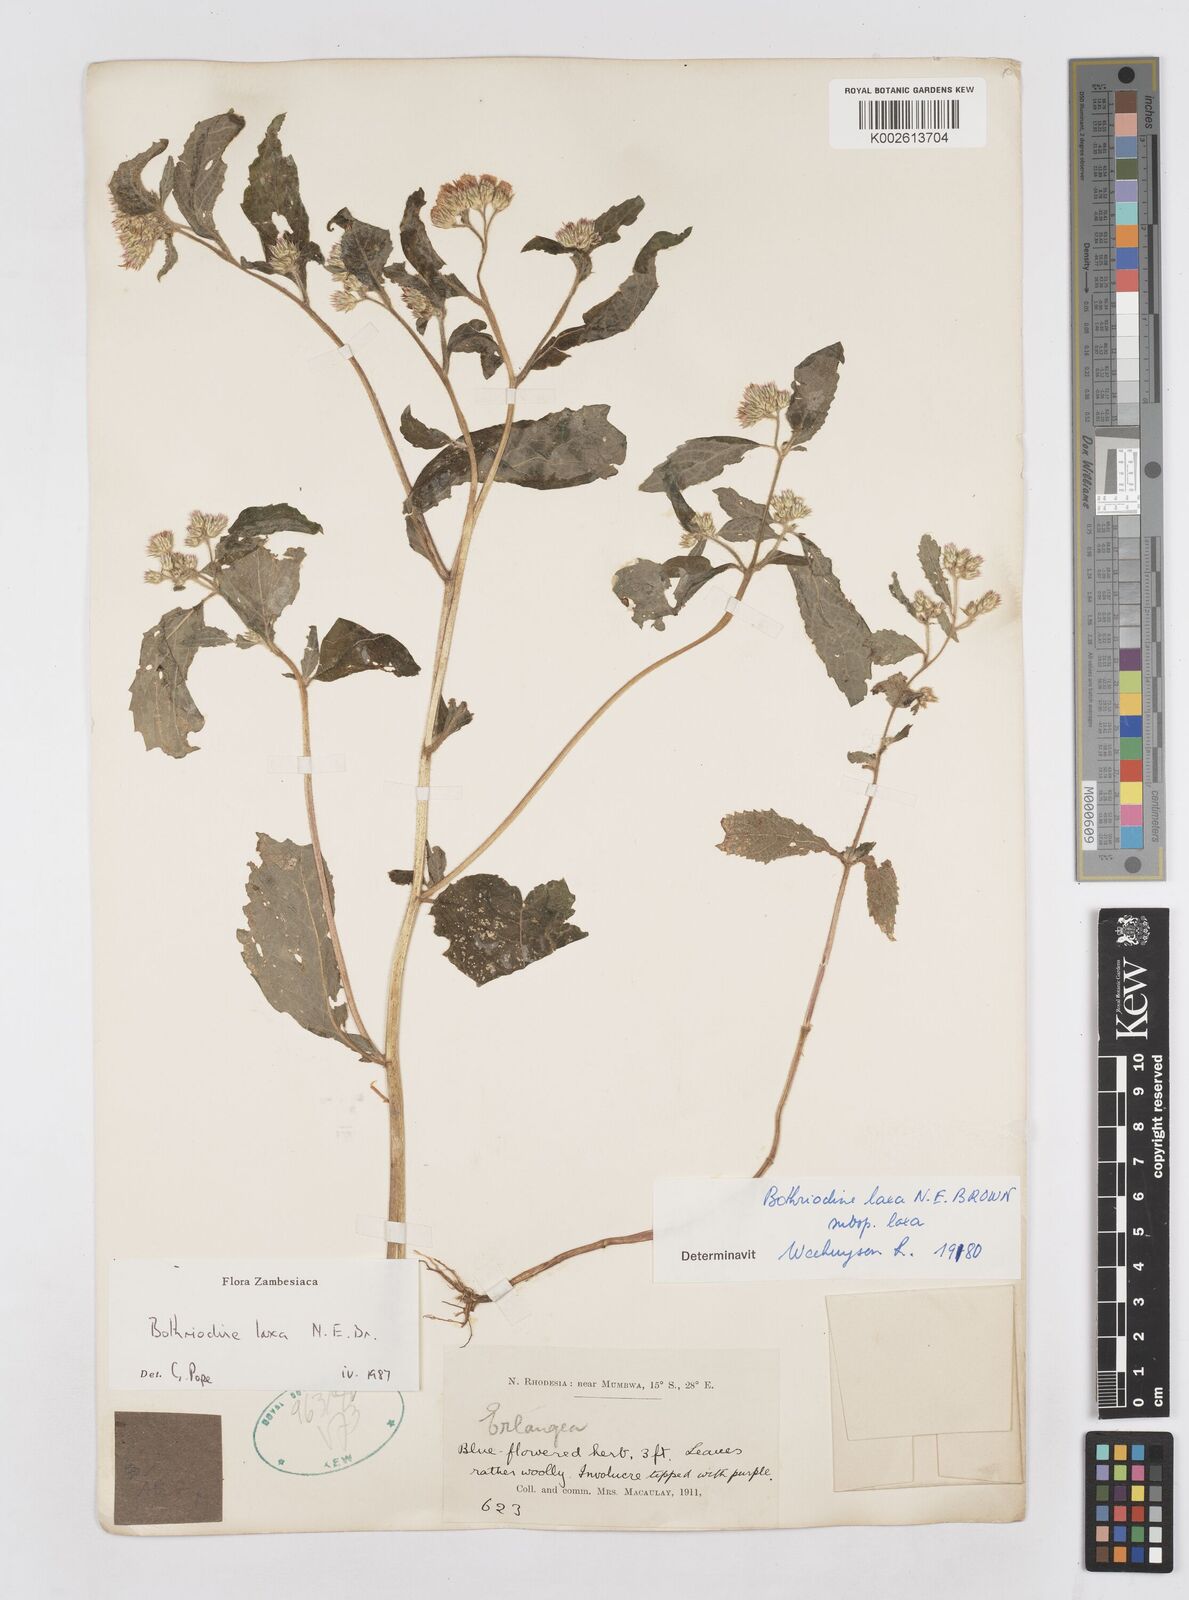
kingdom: Plantae
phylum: Tracheophyta
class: Magnoliopsida
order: Asterales
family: Asteraceae
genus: Bothriocline
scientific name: Bothriocline laxa
